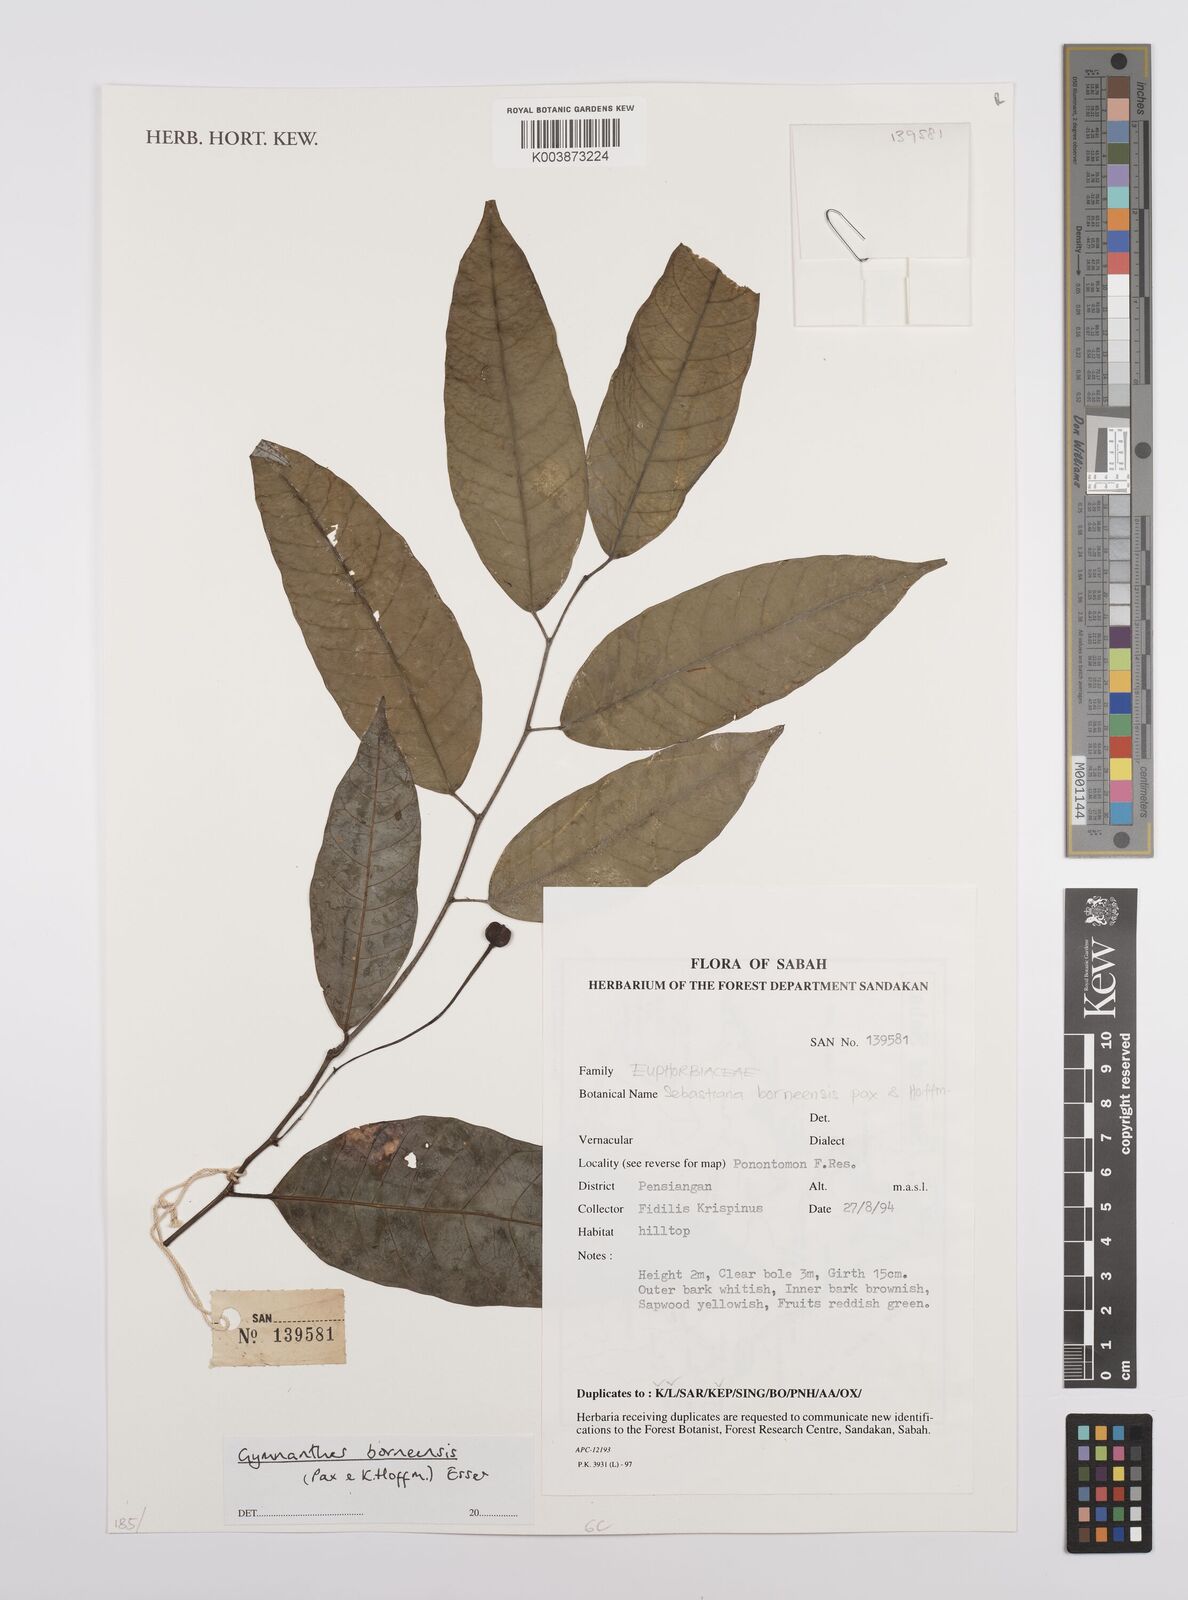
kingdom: Plantae
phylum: Tracheophyta
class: Magnoliopsida
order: Malpighiales
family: Euphorbiaceae
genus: Gymnanthes
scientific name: Gymnanthes borneensis
